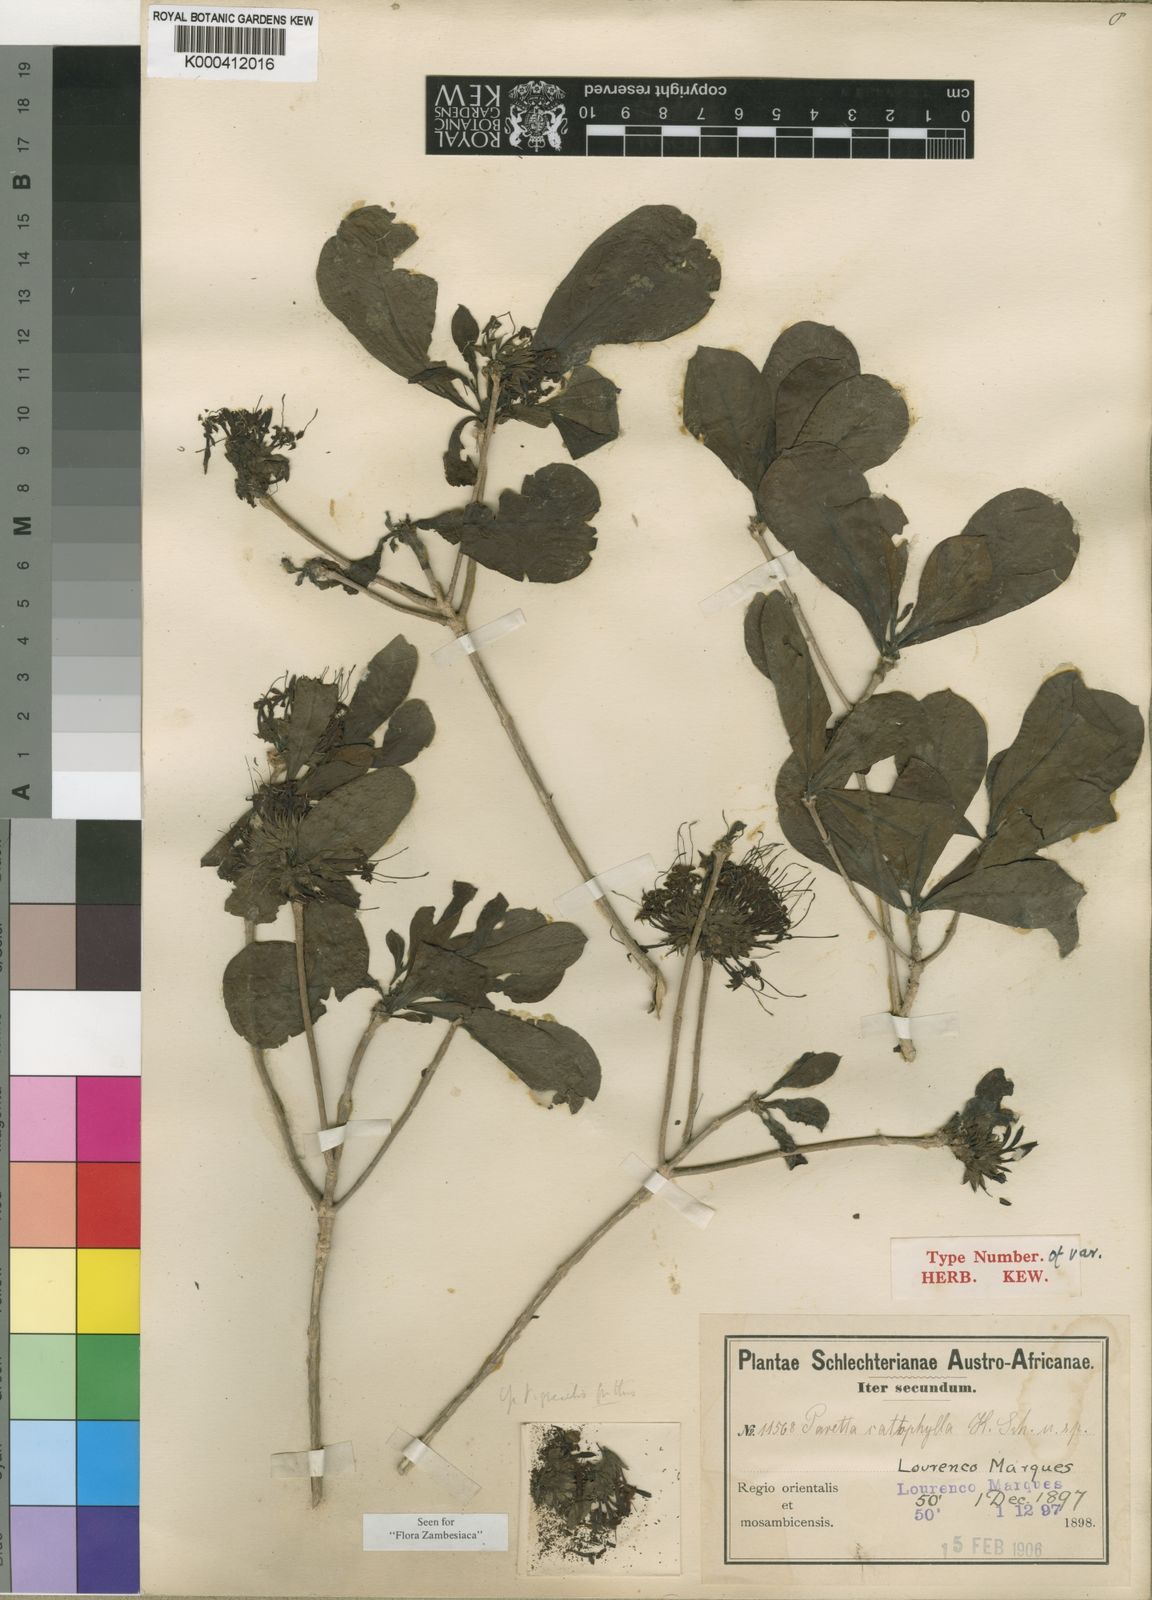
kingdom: Plantae
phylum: Tracheophyta
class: Magnoliopsida
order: Gentianales
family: Rubiaceae
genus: Pavetta
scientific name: Pavetta catophylla
